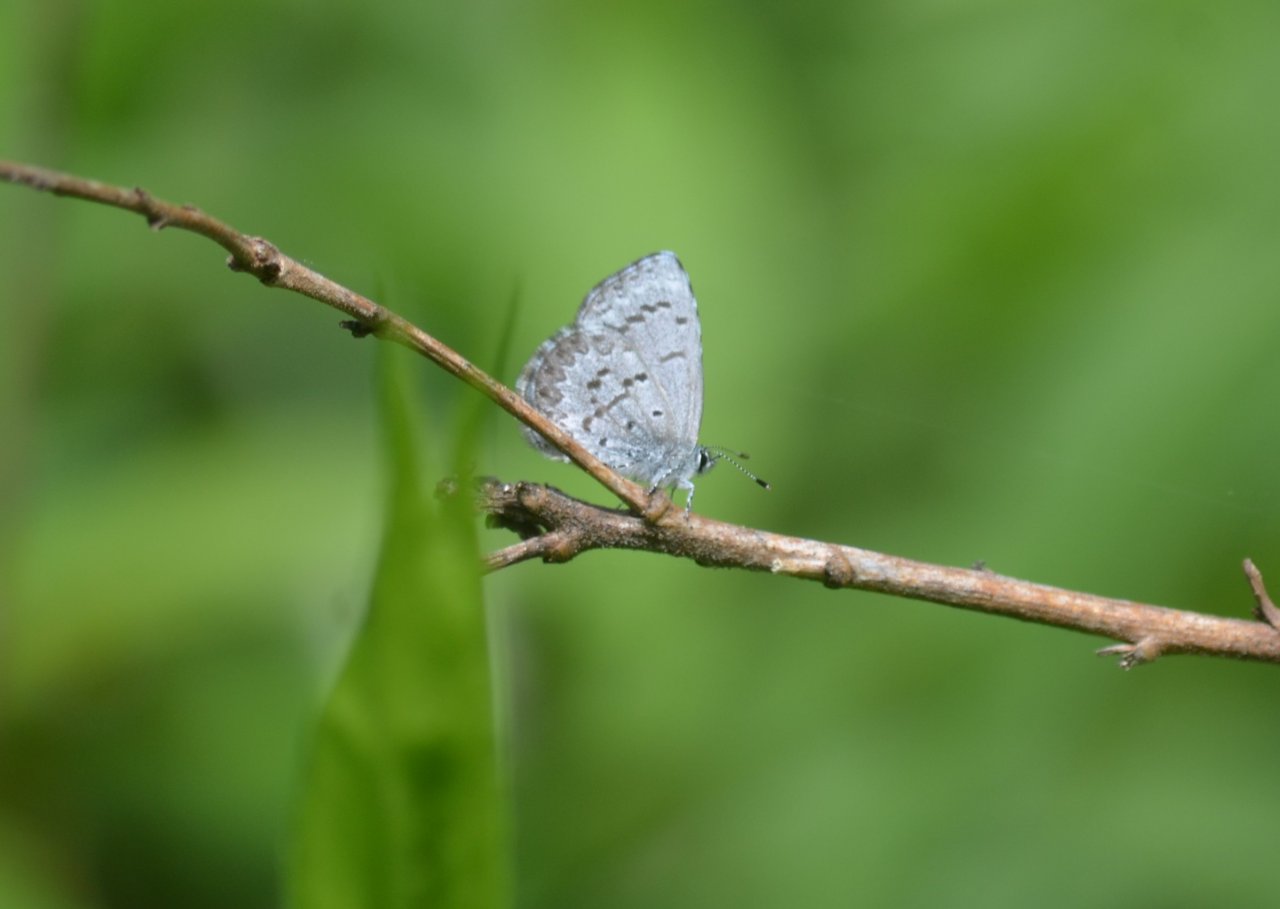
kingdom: Animalia
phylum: Arthropoda
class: Insecta
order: Lepidoptera
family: Lycaenidae
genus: Celastrina
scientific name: Celastrina lucia
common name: Northern Spring Azure
